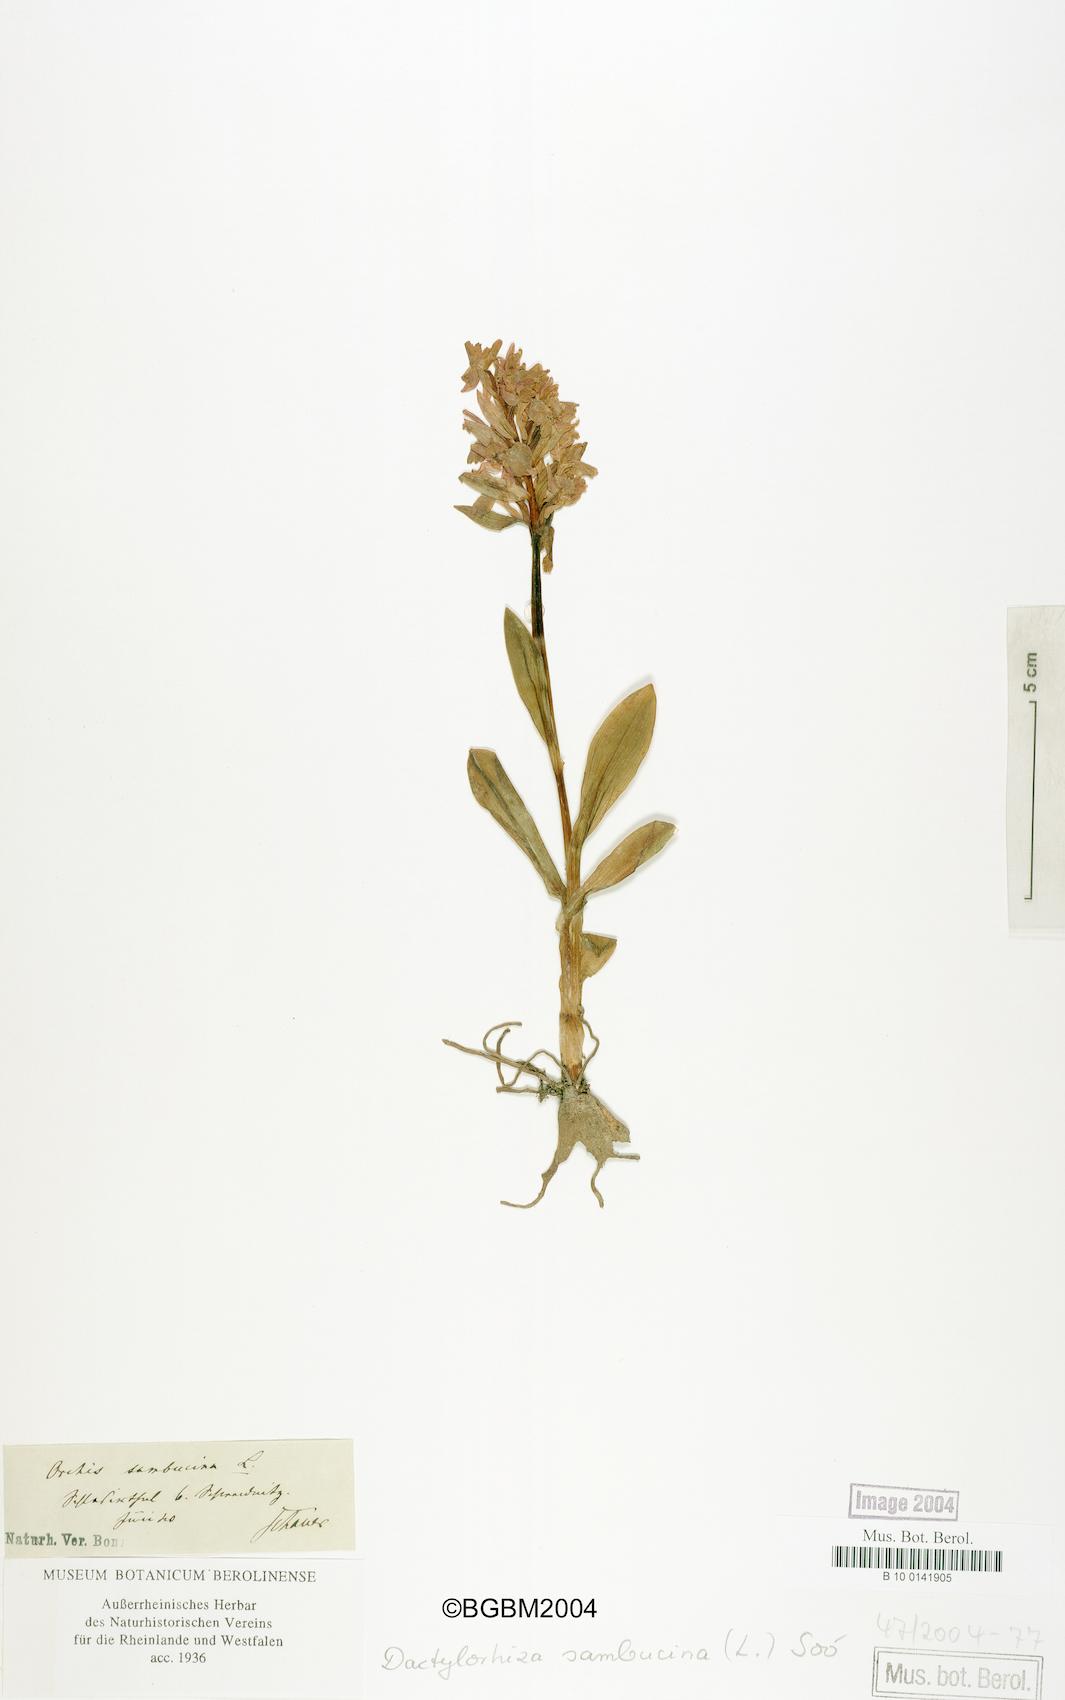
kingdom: Plantae
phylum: Tracheophyta
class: Liliopsida
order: Asparagales
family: Orchidaceae
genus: Dactylorhiza
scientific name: Dactylorhiza sambucina
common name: Elder-flowered orchid
